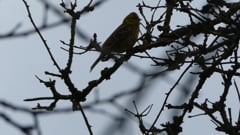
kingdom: Animalia
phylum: Chordata
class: Aves
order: Passeriformes
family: Emberizidae
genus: Emberiza
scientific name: Emberiza citrinella
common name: Yellowhammer
